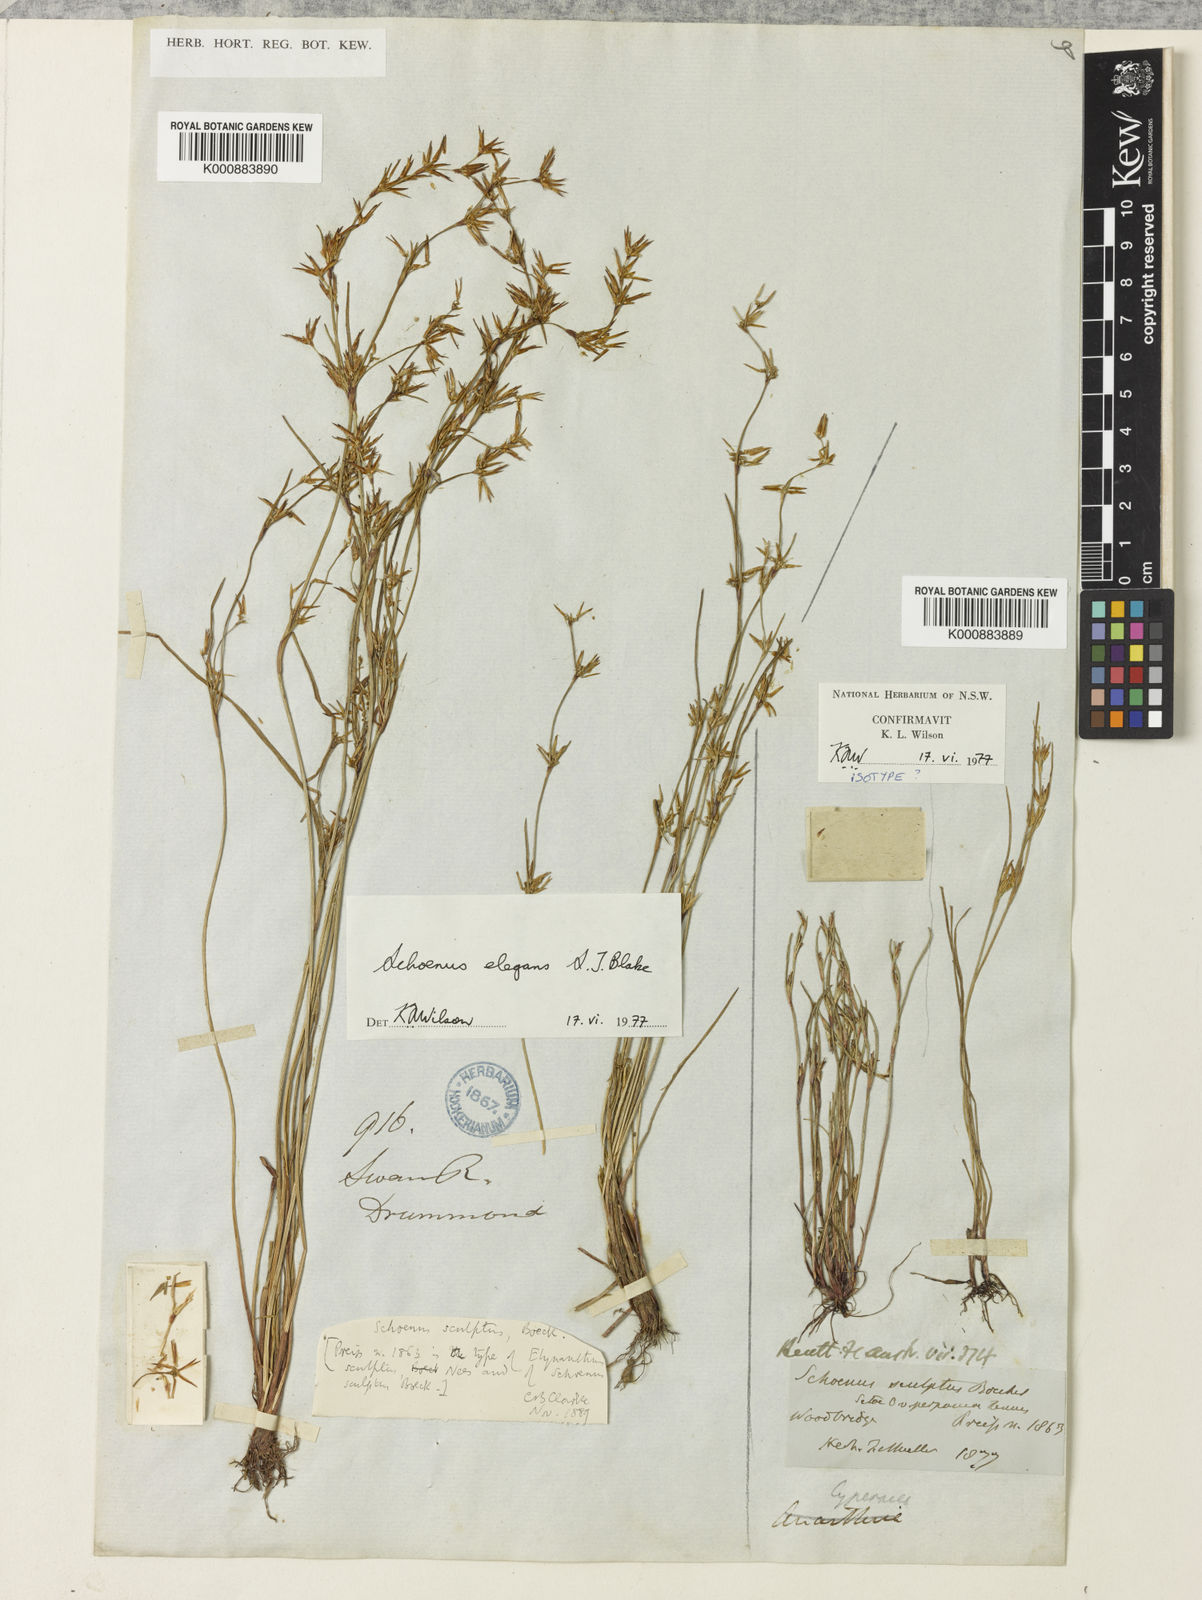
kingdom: Plantae
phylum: Tracheophyta
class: Liliopsida
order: Poales
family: Cyperaceae
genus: Schoenus
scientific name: Schoenus elegans
